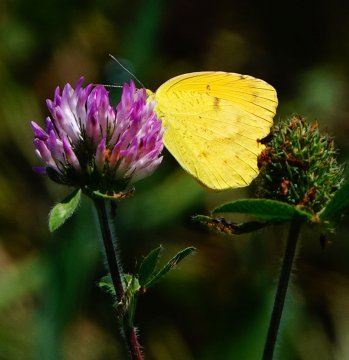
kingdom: Animalia
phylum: Arthropoda
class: Insecta
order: Lepidoptera
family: Pieridae
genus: Abaeis
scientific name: Abaeis nicippe
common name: Sleepy Orange
